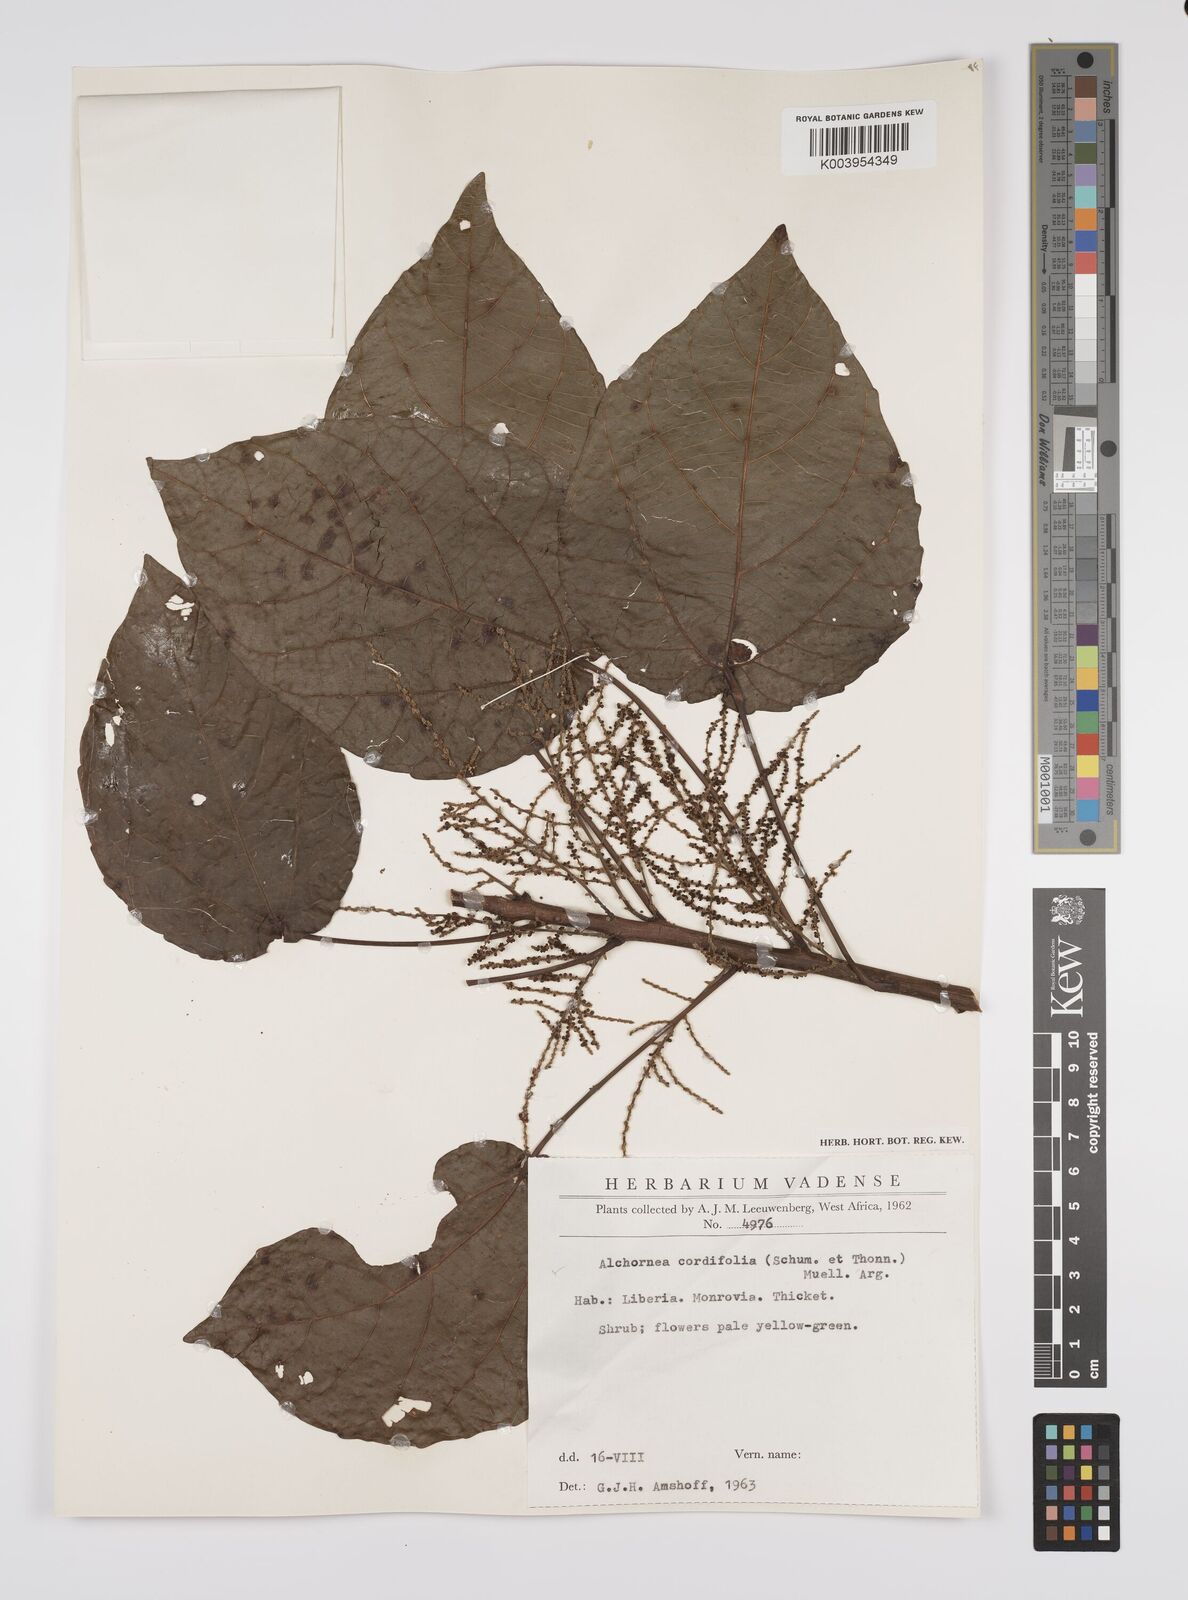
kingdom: Plantae
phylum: Tracheophyta
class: Magnoliopsida
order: Malpighiales
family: Euphorbiaceae
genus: Alchornea
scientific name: Alchornea cordifolia
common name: Christmasbush
